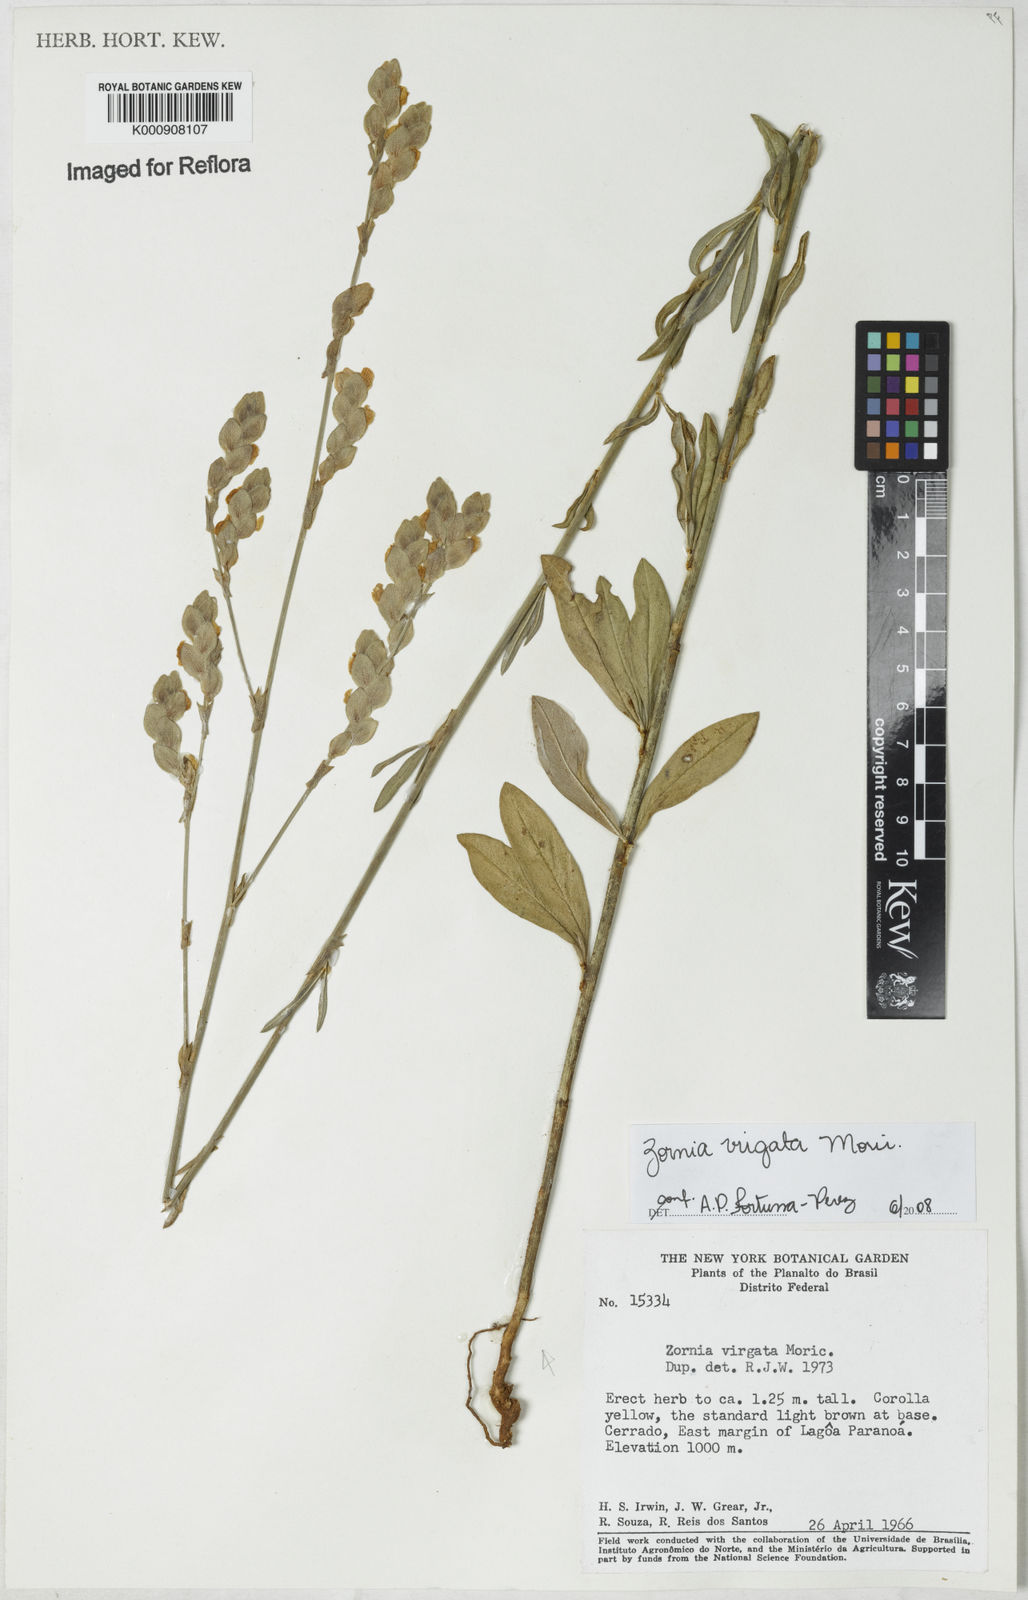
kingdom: Plantae
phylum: Tracheophyta
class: Magnoliopsida
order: Fabales
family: Fabaceae
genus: Zornia
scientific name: Zornia virgata
